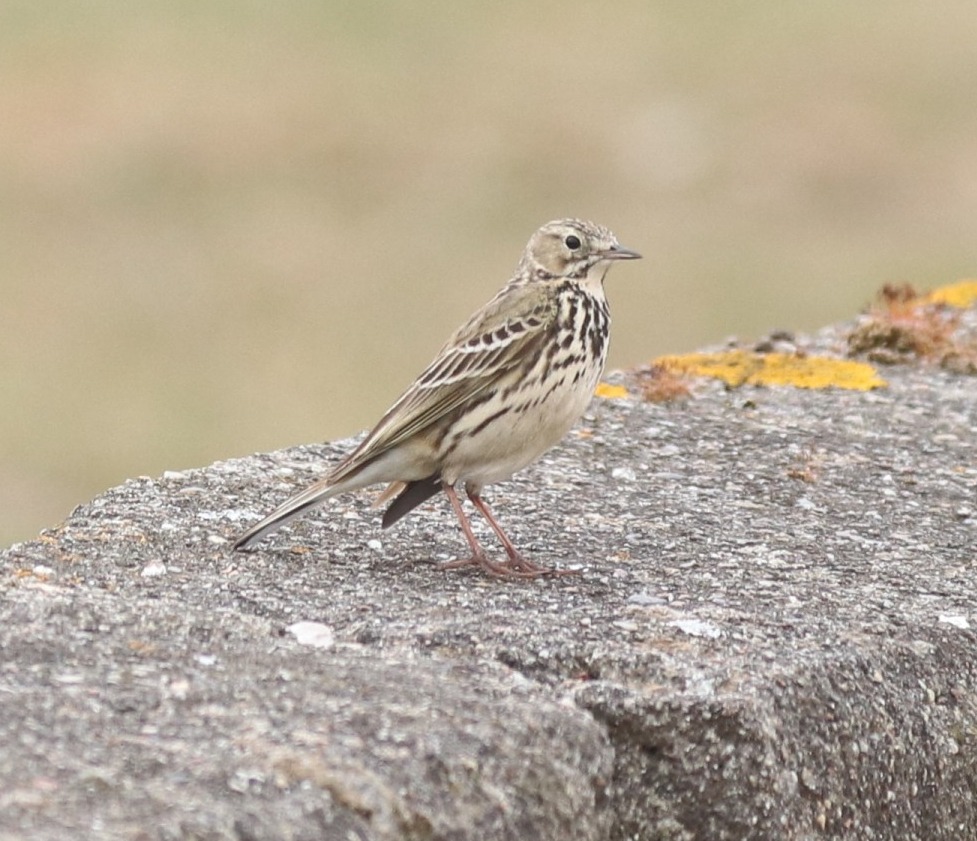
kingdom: Animalia
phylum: Chordata
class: Aves
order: Passeriformes
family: Motacillidae
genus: Anthus
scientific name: Anthus pratensis
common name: Engpiber
